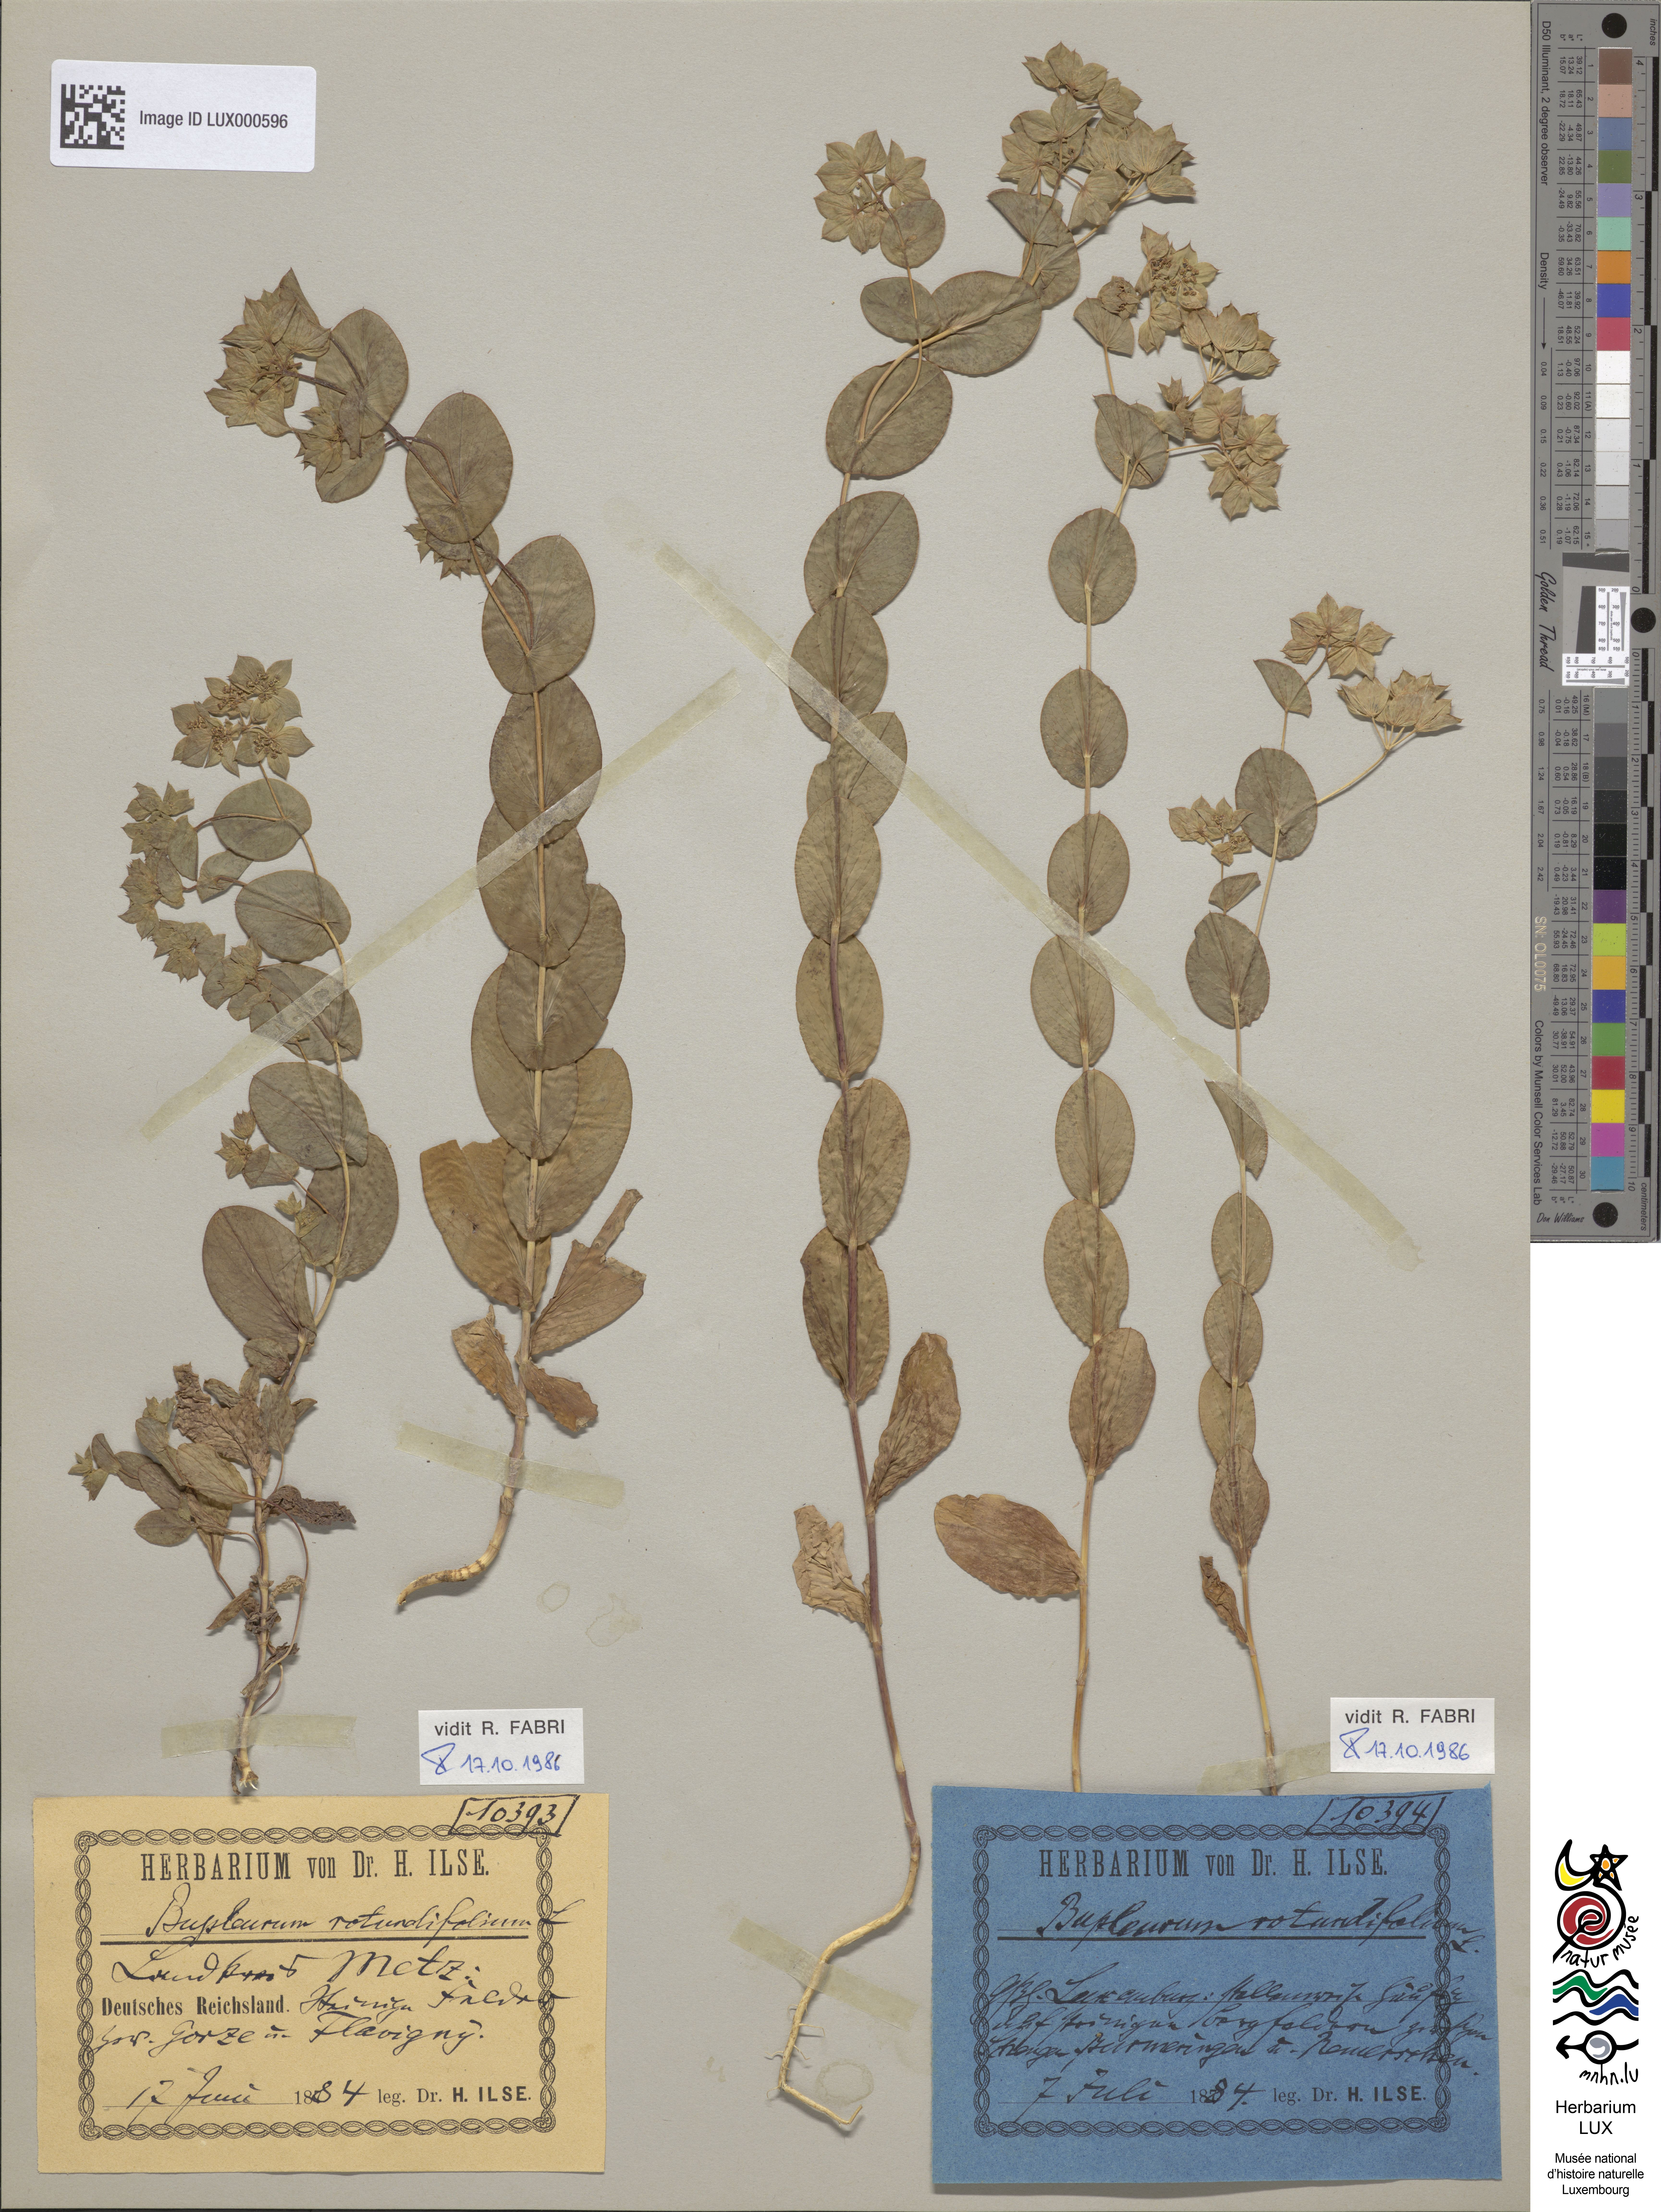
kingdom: Plantae
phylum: Tracheophyta
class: Magnoliopsida
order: Apiales
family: Apiaceae
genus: Bupleurum
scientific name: Bupleurum rotundifolium
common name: Thorow-wax
